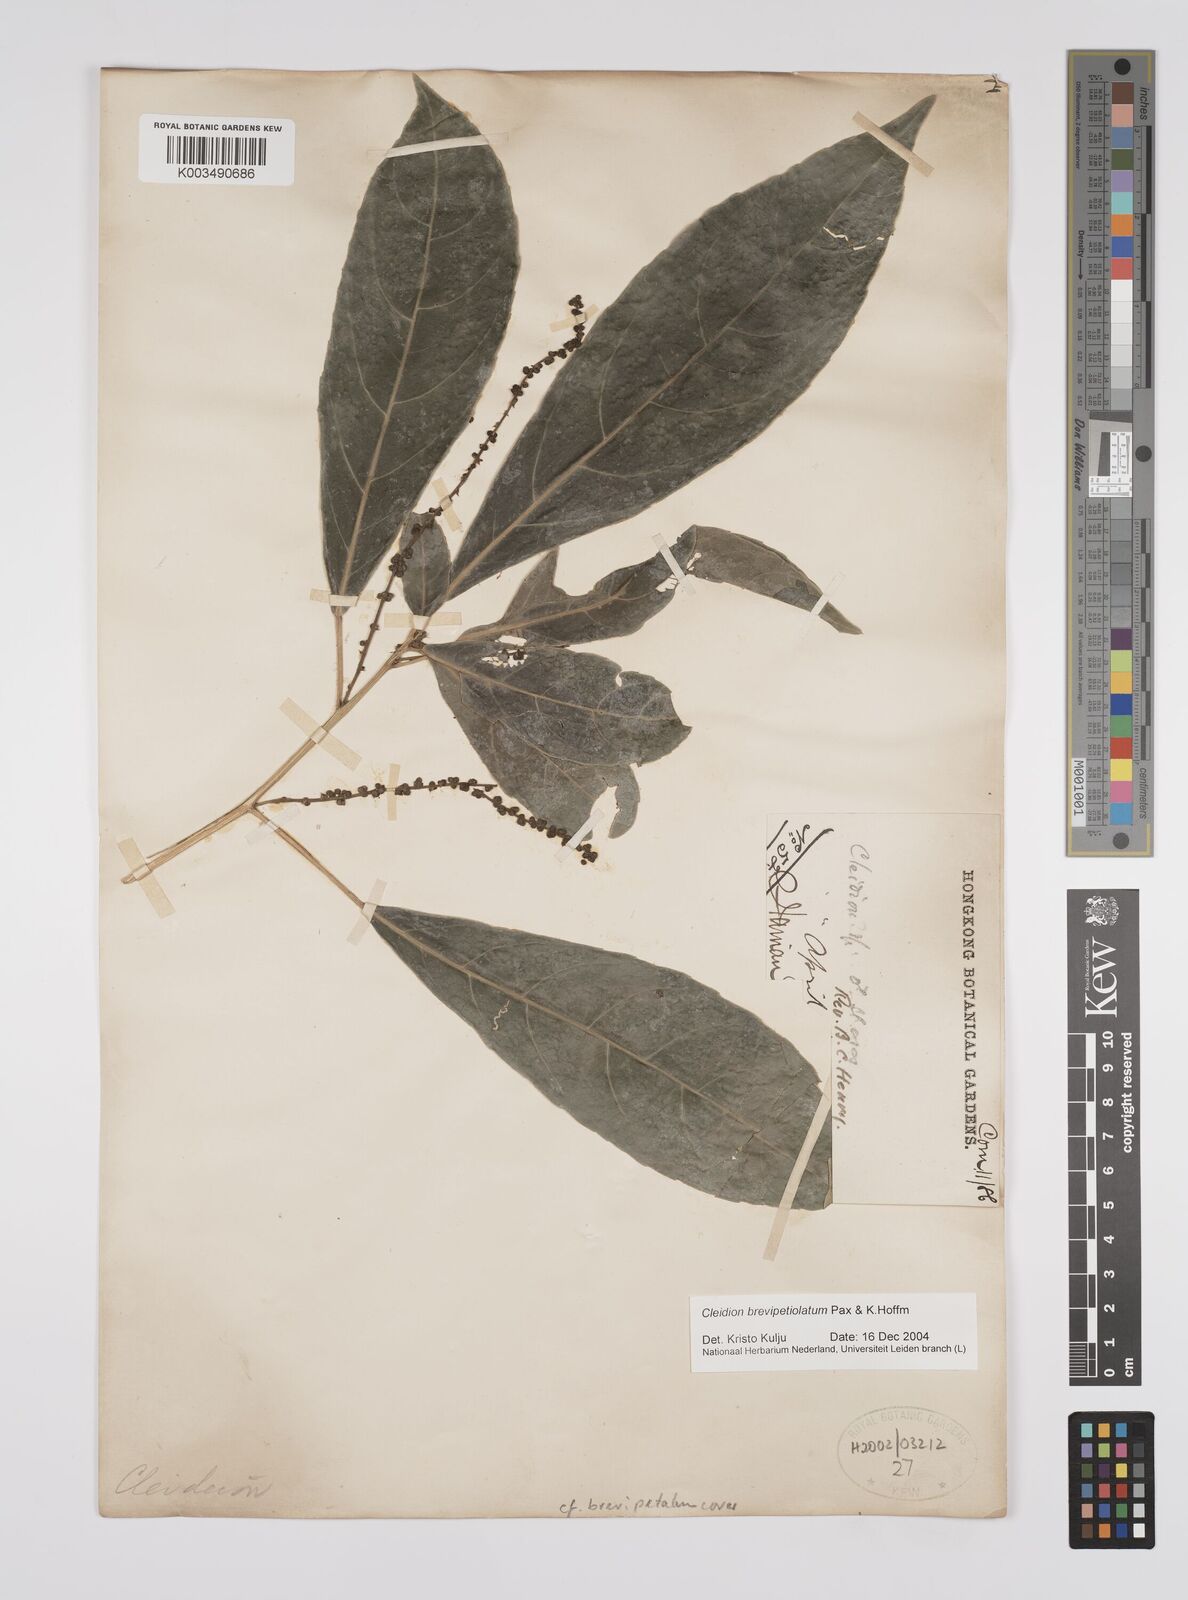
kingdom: Plantae
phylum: Tracheophyta
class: Magnoliopsida
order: Malpighiales
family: Euphorbiaceae
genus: Cleidion
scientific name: Cleidion brevipetiolatum
